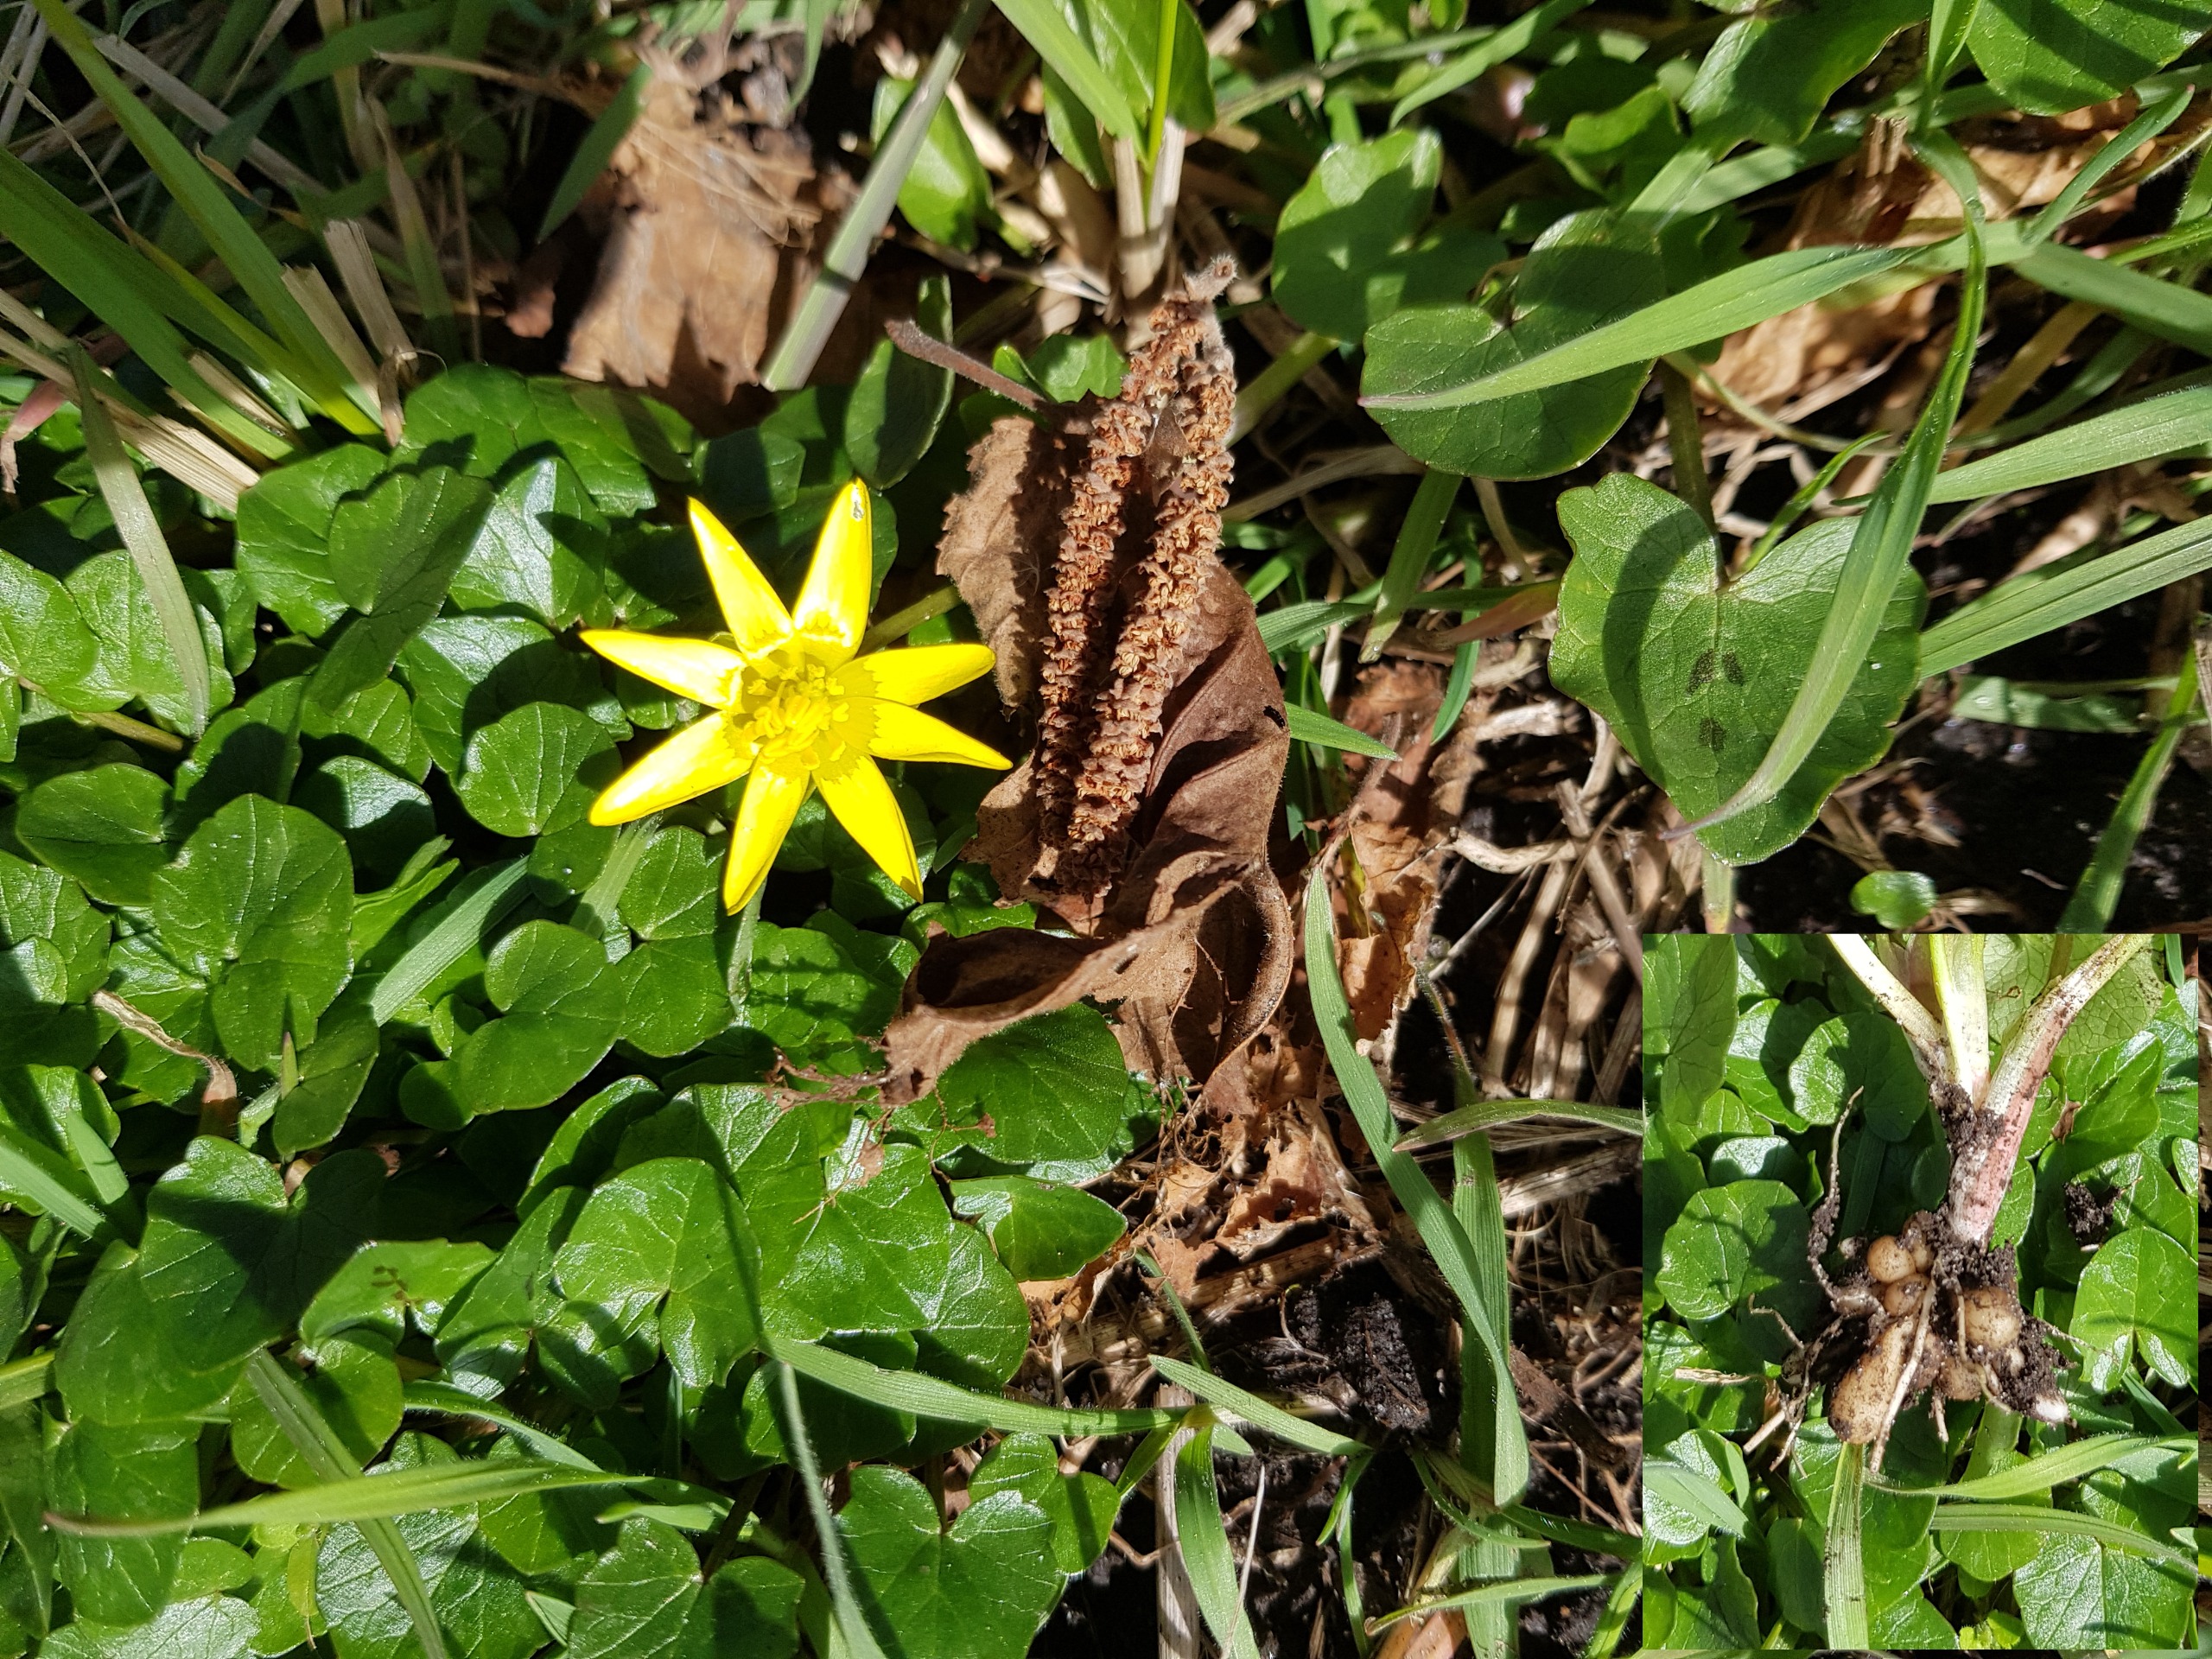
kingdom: Plantae
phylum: Tracheophyta
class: Magnoliopsida
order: Ranunculales
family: Ranunculaceae
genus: Ficaria
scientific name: Ficaria verna
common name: Vorterod
